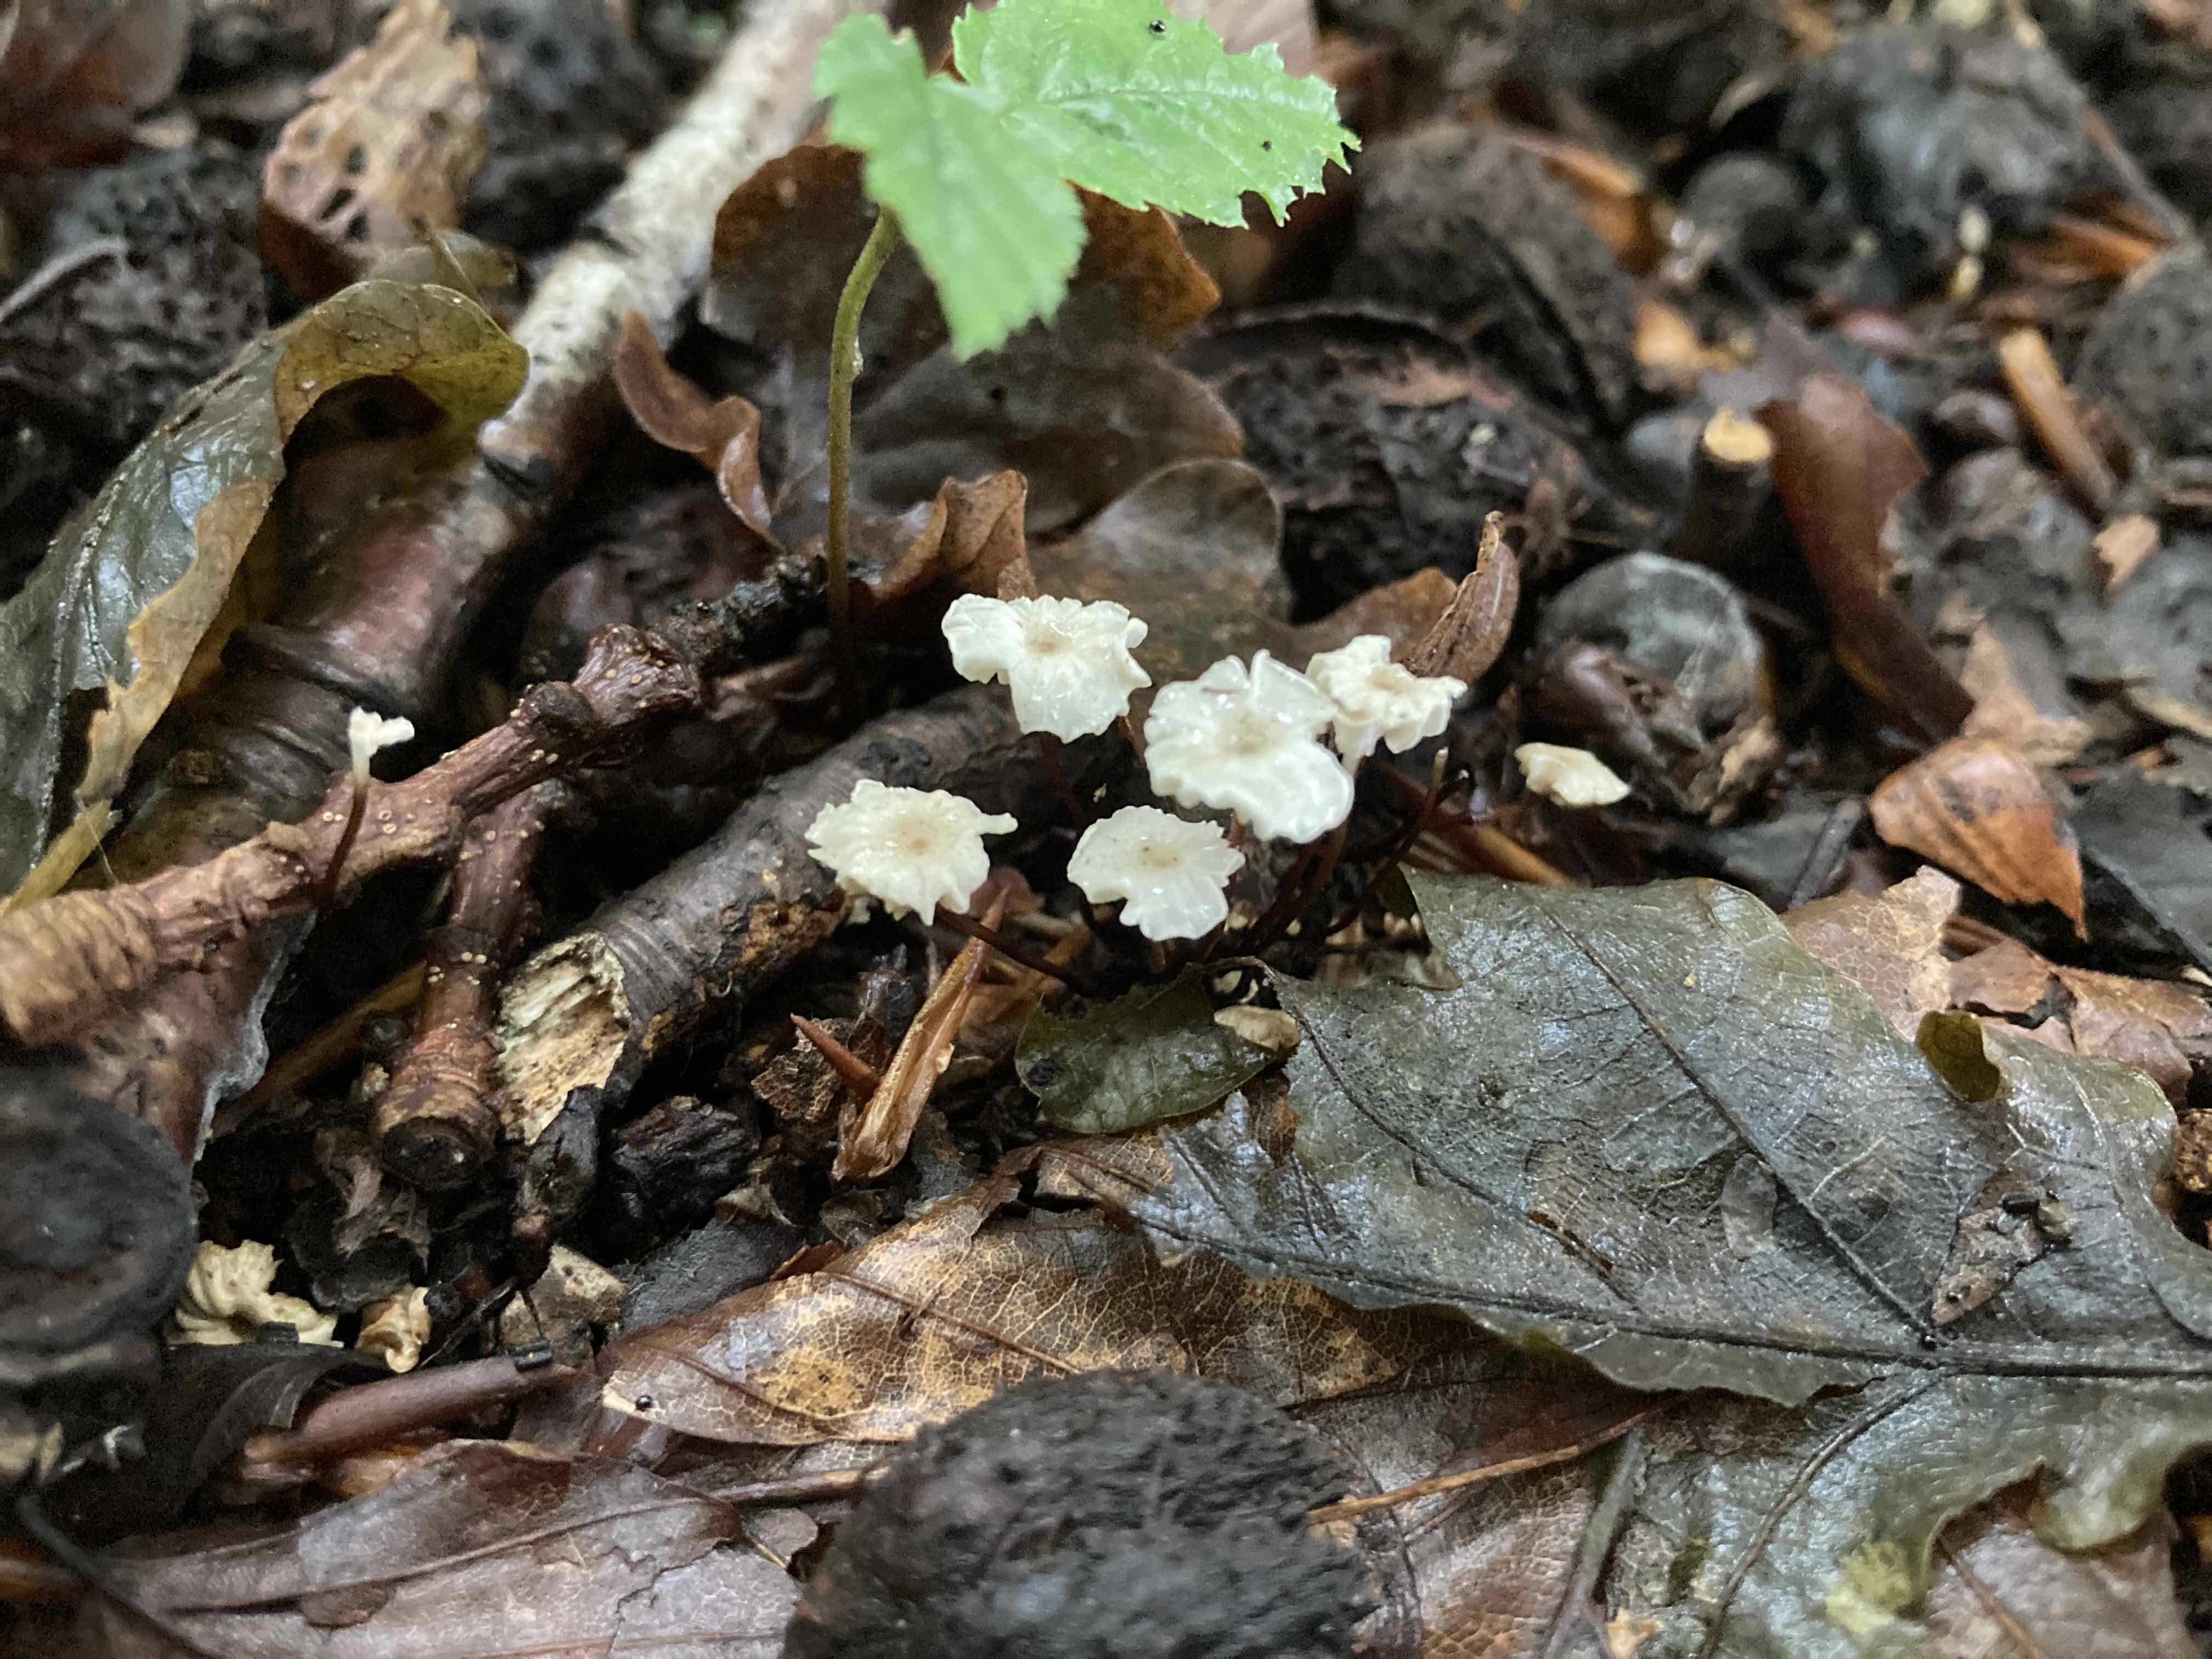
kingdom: Fungi
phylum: Basidiomycota
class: Agaricomycetes
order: Agaricales
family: Marasmiaceae
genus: Marasmius
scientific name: Marasmius rotula
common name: hjul-bruskhat
